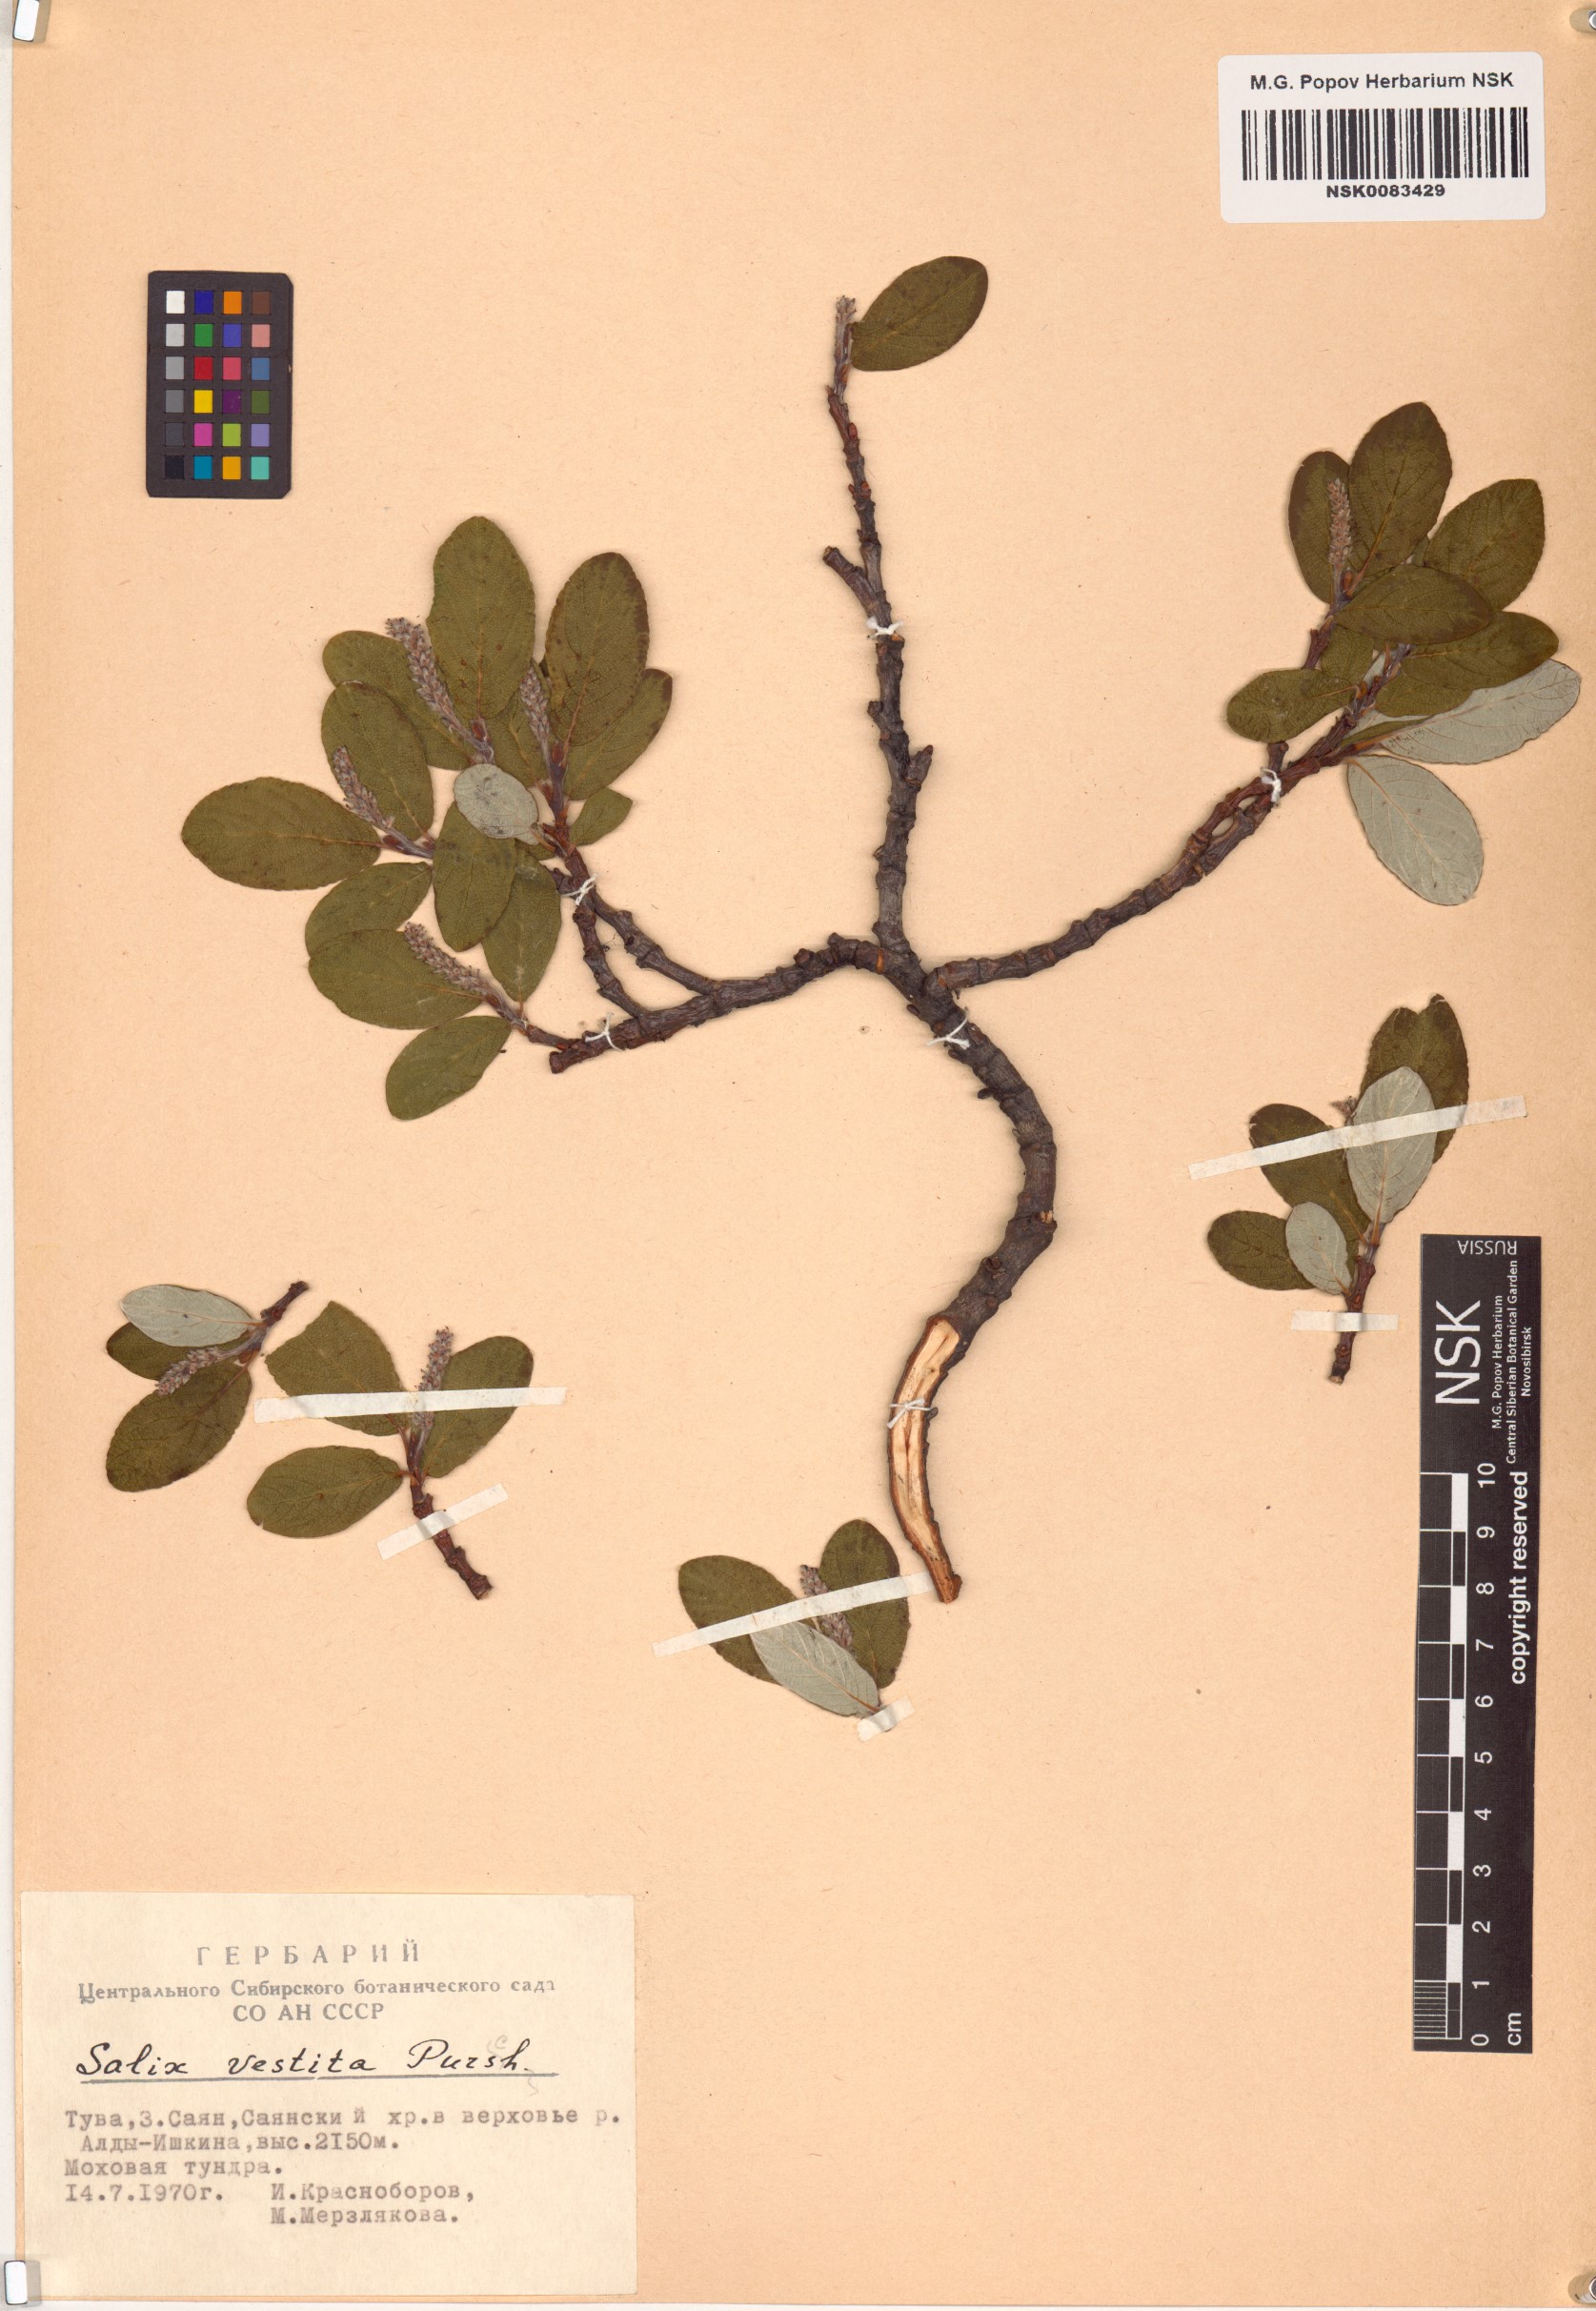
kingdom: Plantae
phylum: Tracheophyta
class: Magnoliopsida
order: Malpighiales
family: Salicaceae
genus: Salix
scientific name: Salix vestita
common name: Hairy willow
